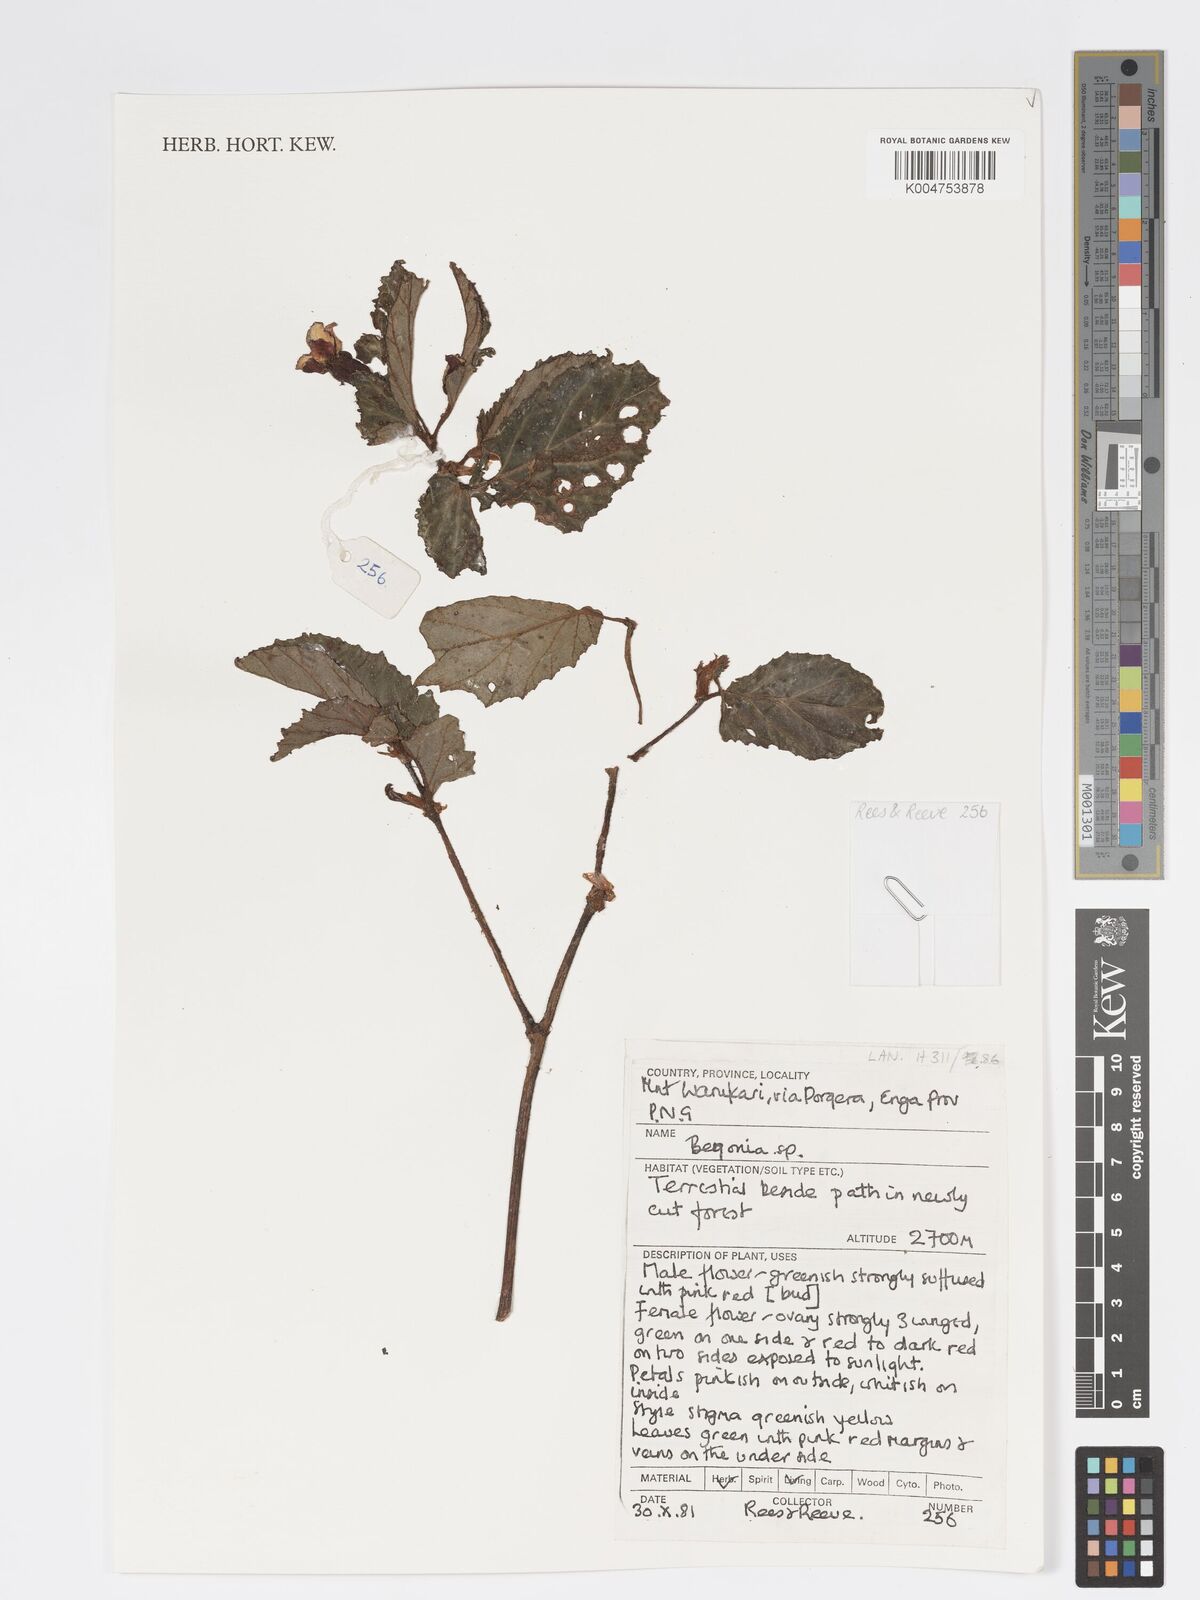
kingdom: Plantae
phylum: Tracheophyta
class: Magnoliopsida
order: Cucurbitales
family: Begoniaceae
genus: Begonia
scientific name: Begonia
